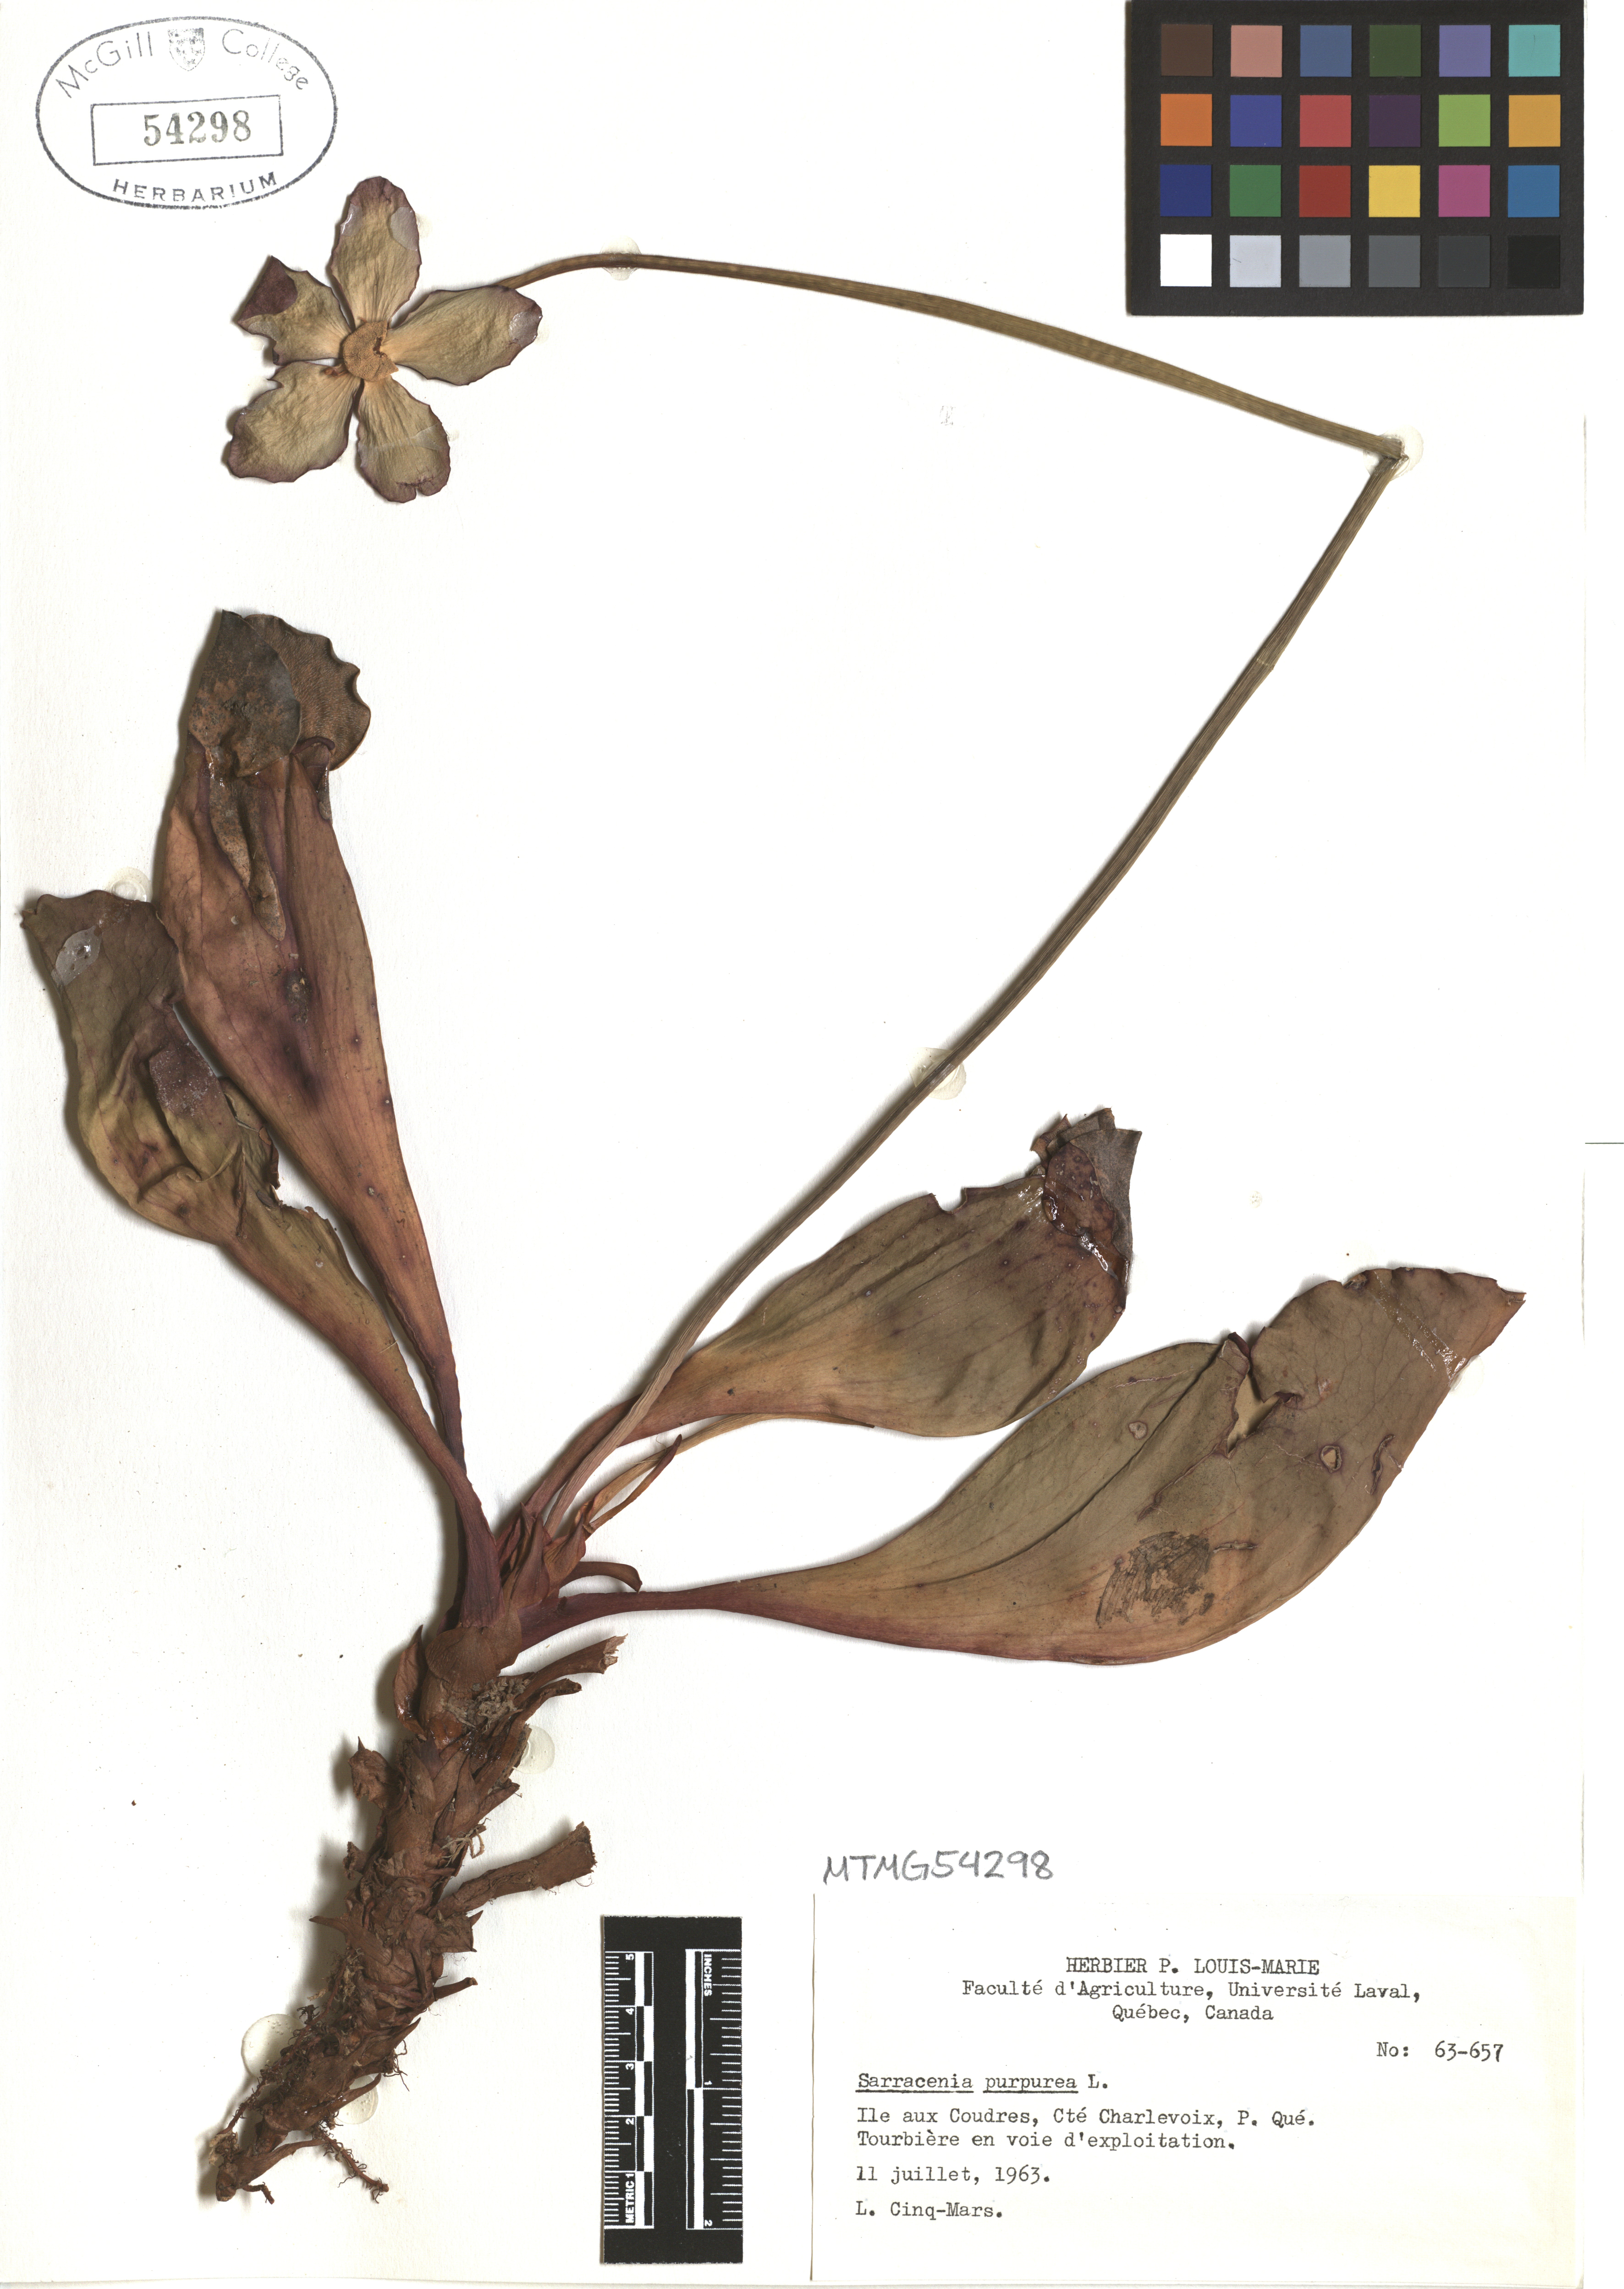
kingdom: Plantae
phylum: Tracheophyta
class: Magnoliopsida
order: Ericales
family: Sarraceniaceae
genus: Sarracenia
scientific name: Sarracenia purpurea
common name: Pitcherplant
